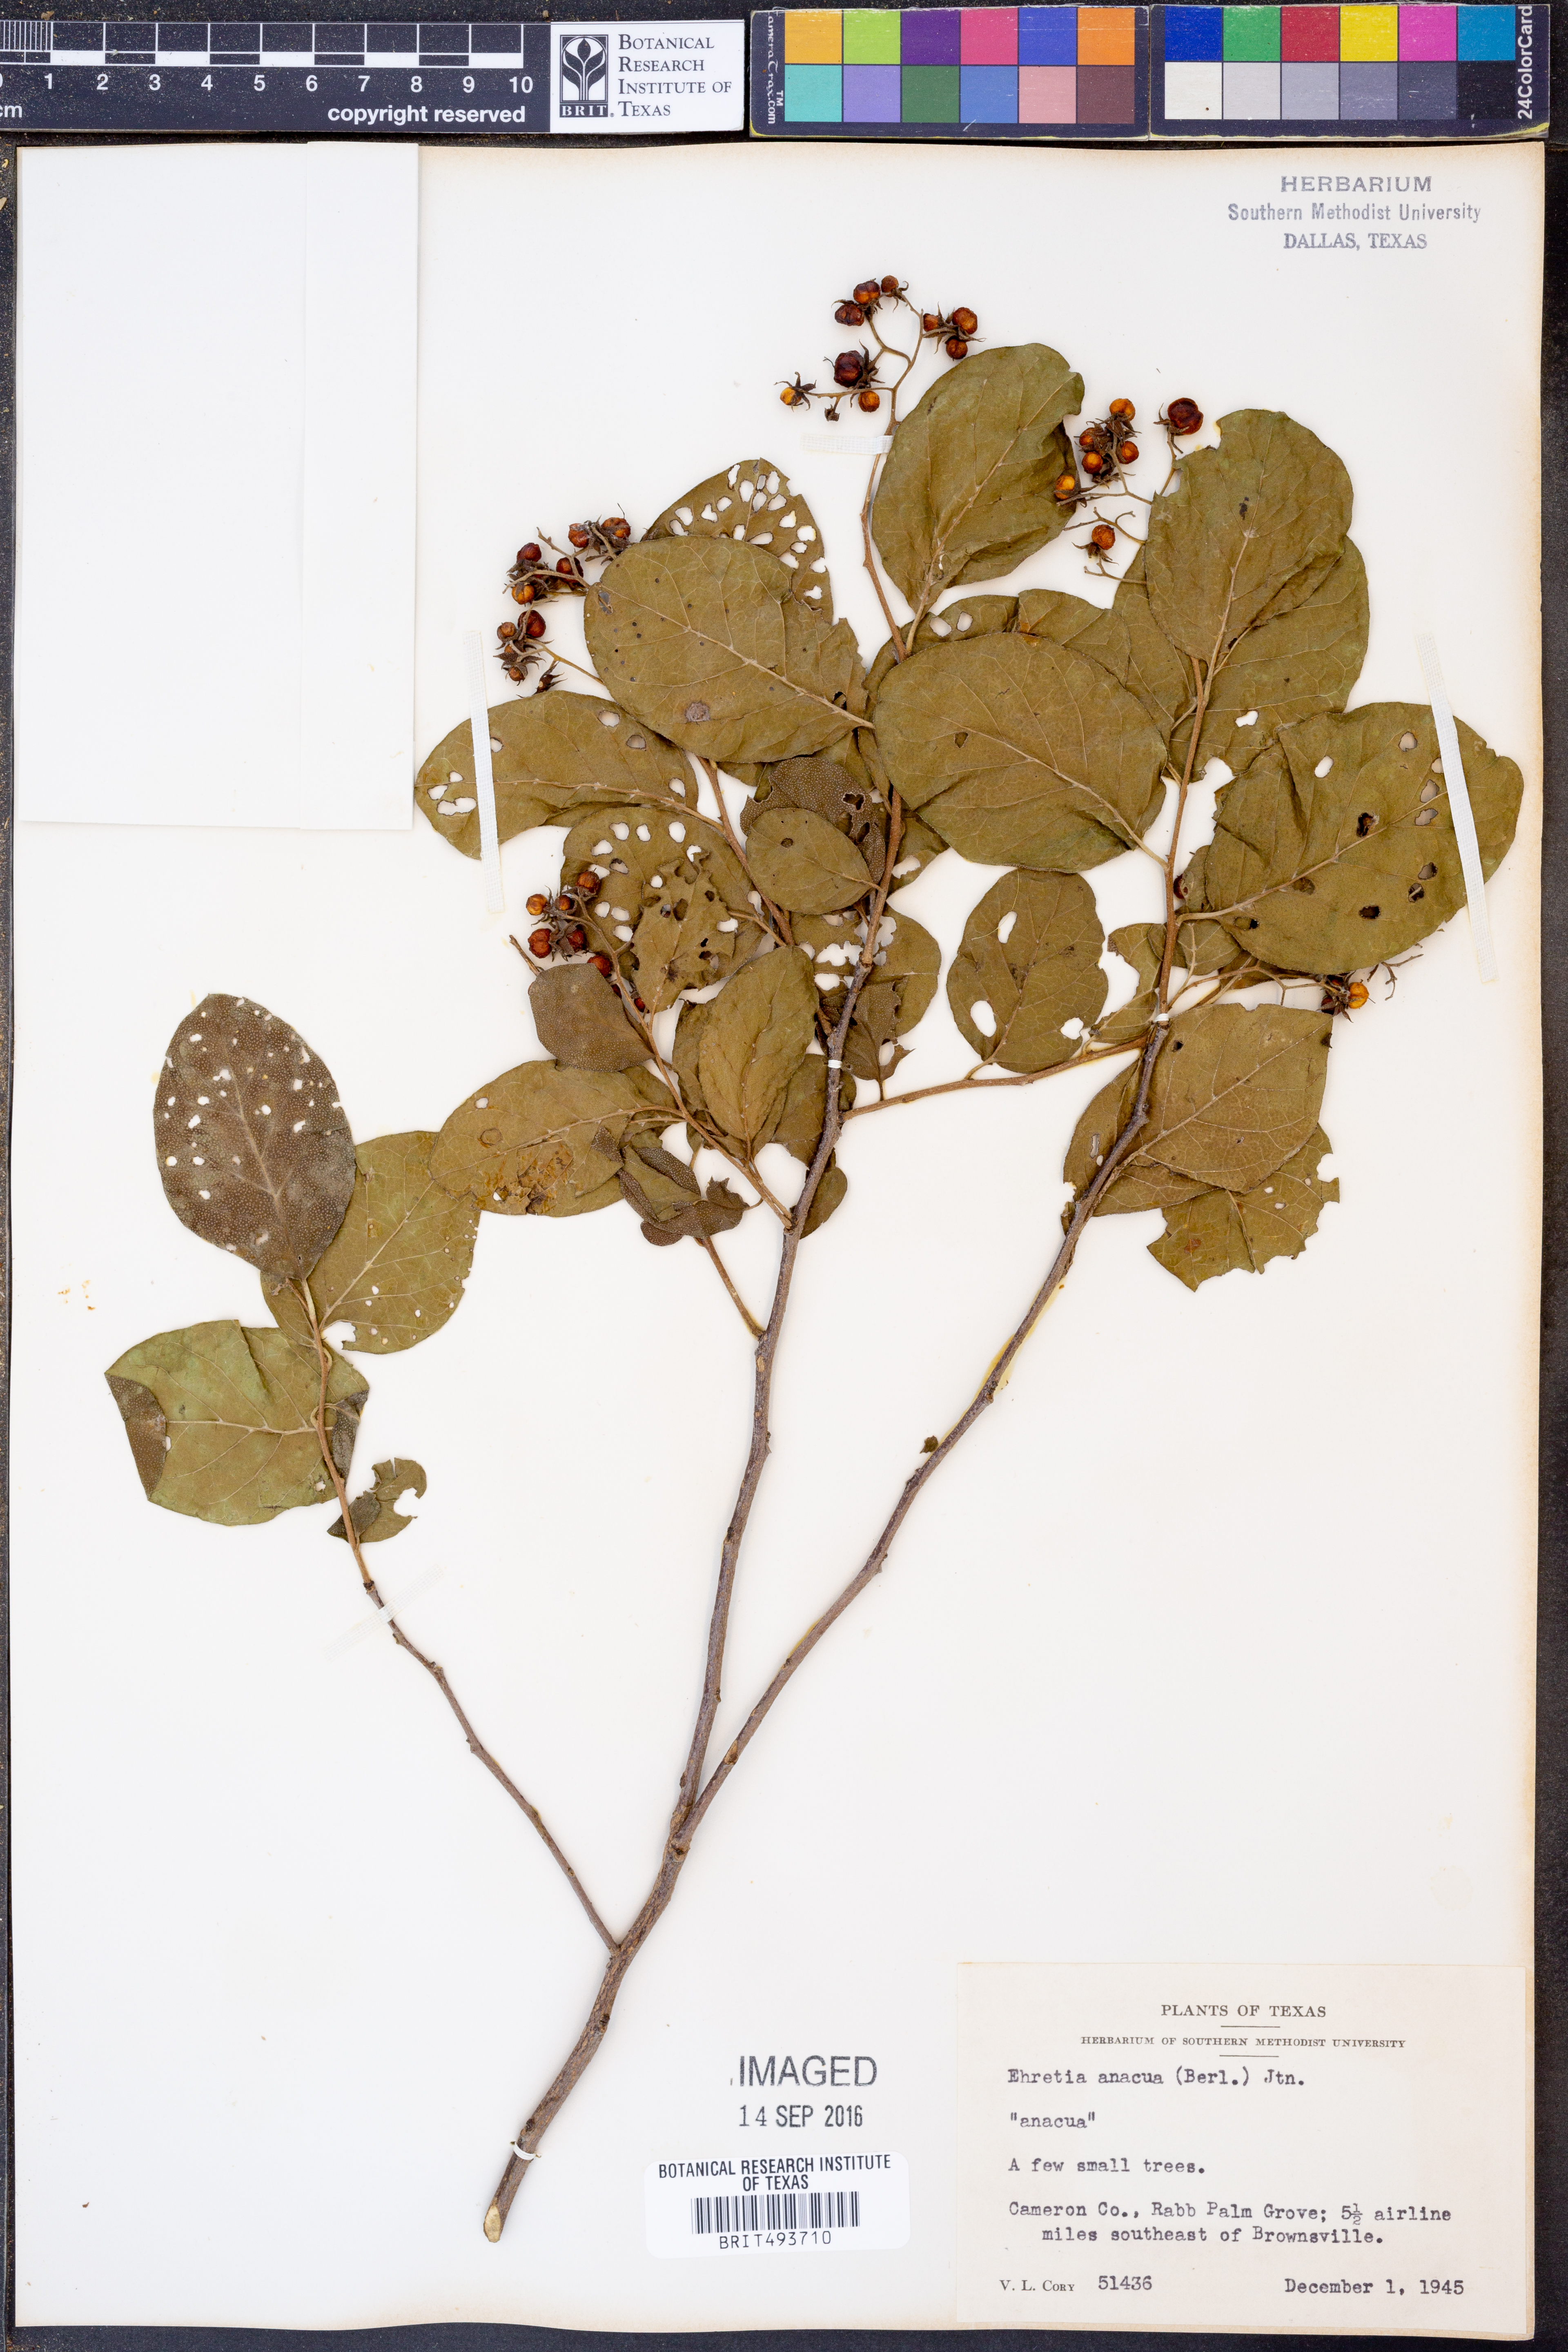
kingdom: Plantae
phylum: Tracheophyta
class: Magnoliopsida
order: Boraginales
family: Ehretiaceae
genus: Ehretia
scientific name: Ehretia anacua
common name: Sugarberry
